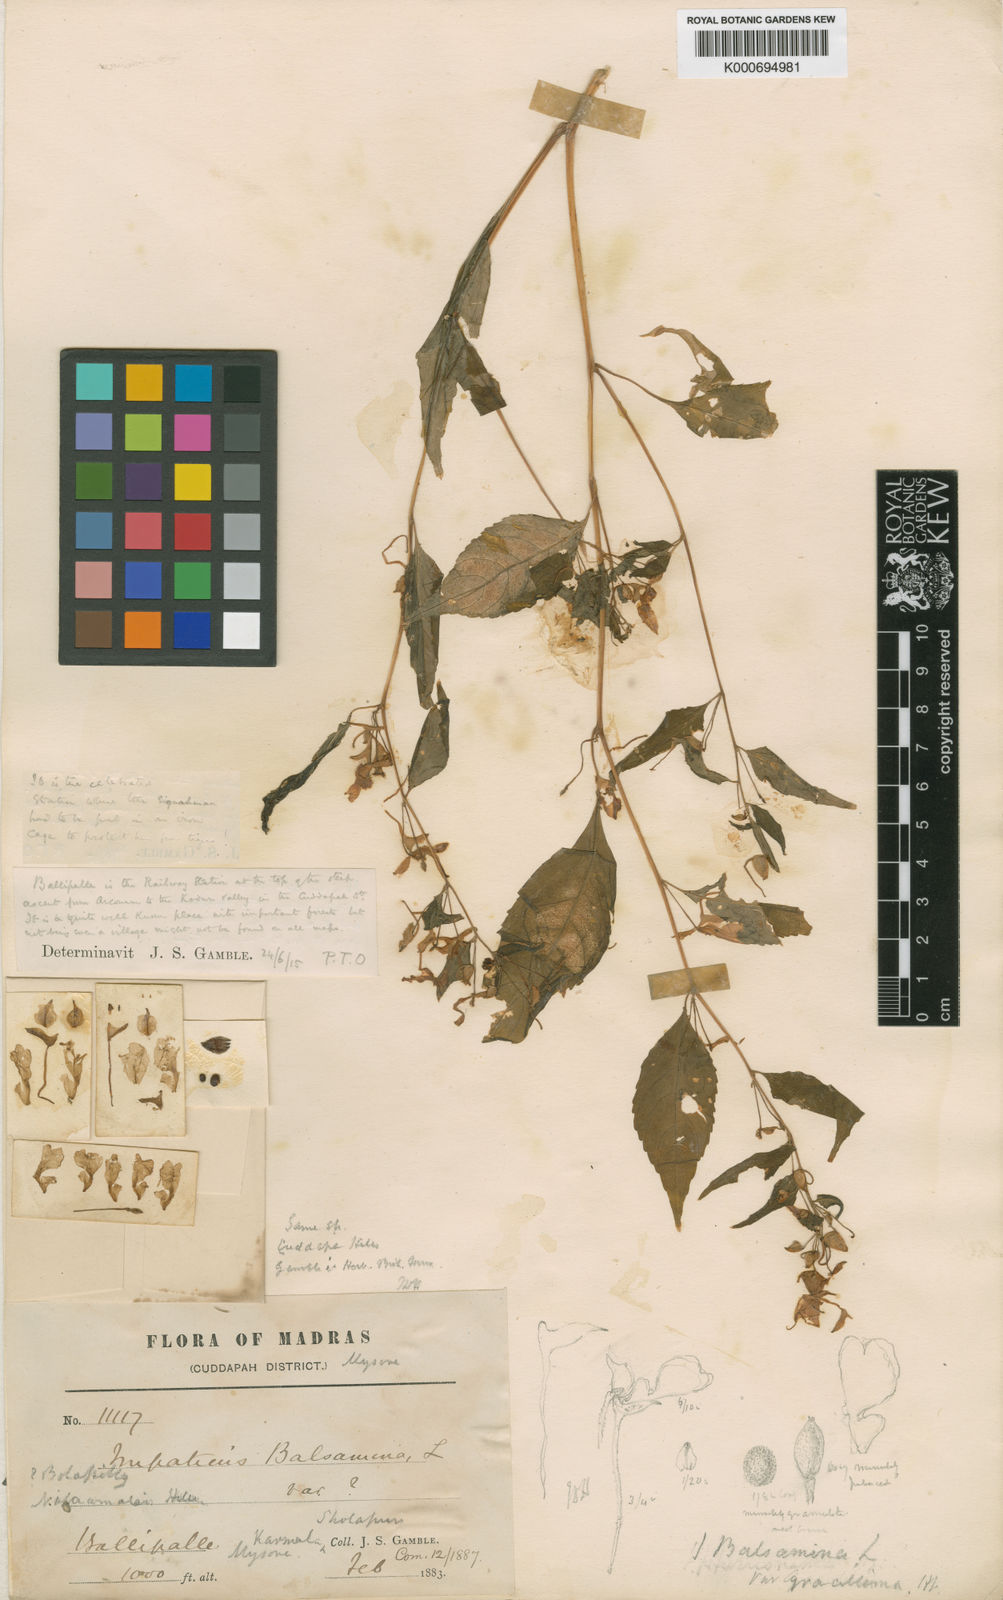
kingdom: Plantae
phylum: Tracheophyta
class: Magnoliopsida
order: Ericales
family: Balsaminaceae
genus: Impatiens
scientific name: Impatiens balsamina
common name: Balsam
